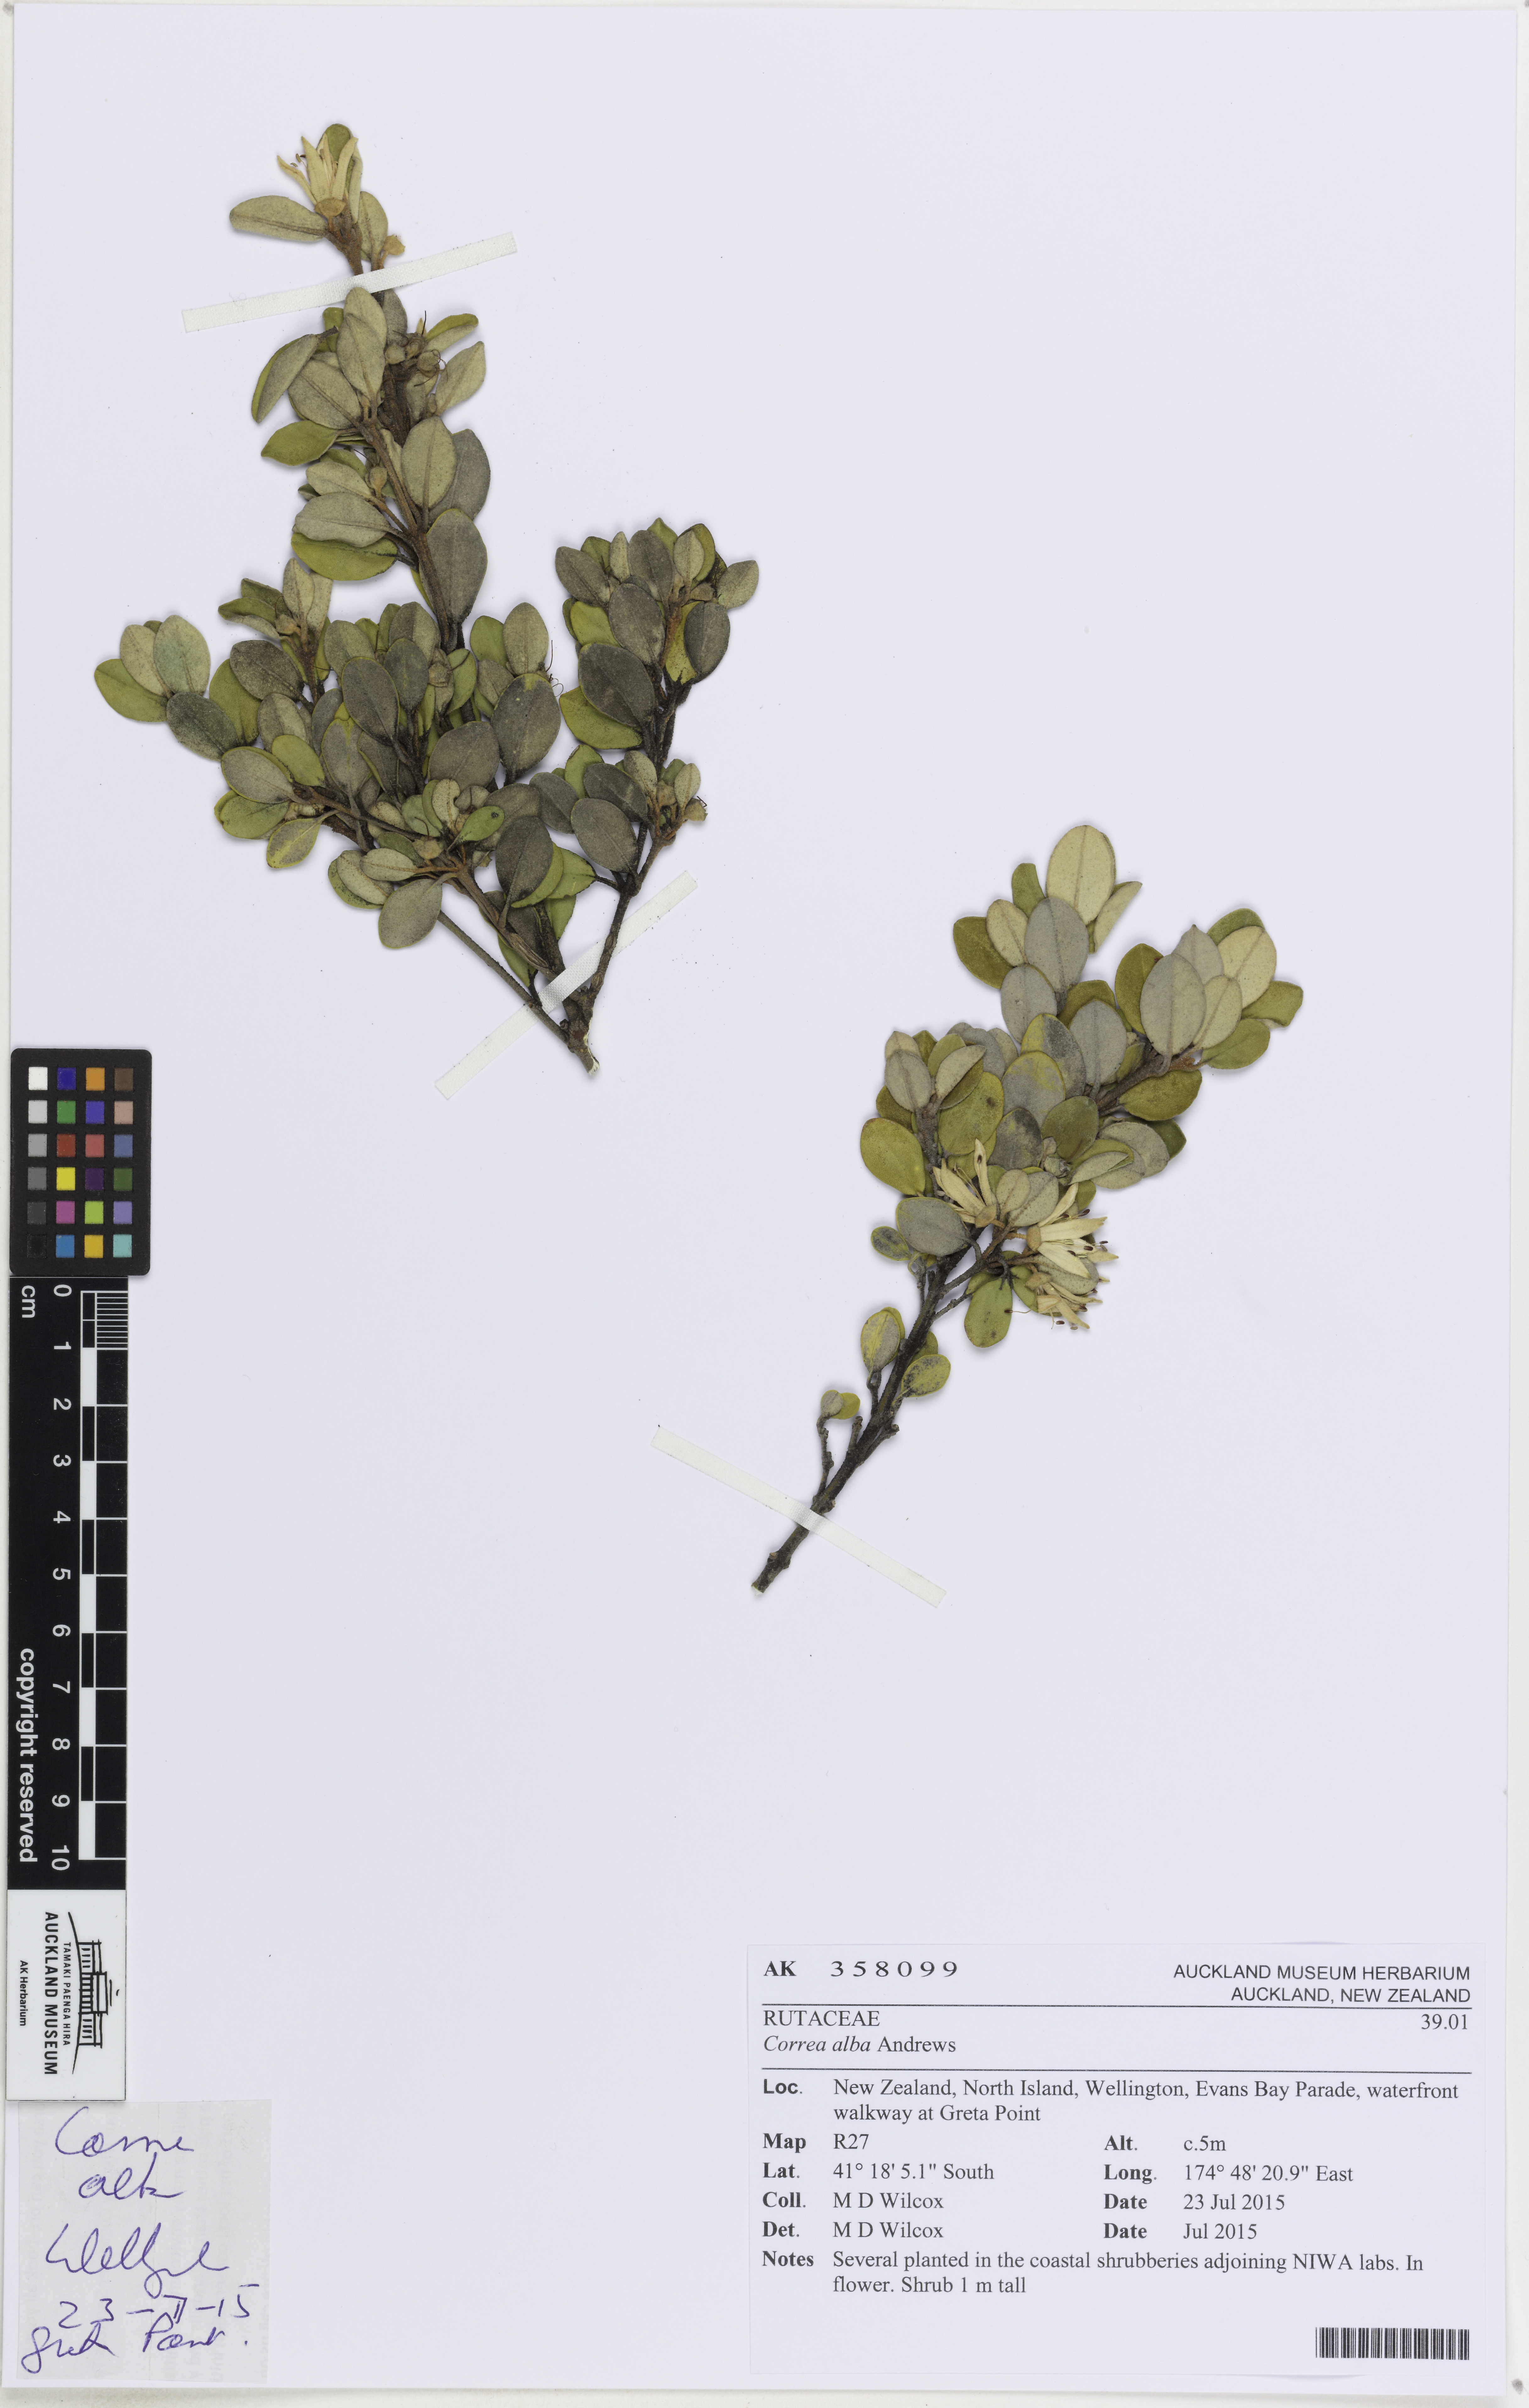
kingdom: Plantae
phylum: Tracheophyta
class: Magnoliopsida
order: Sapindales
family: Rutaceae
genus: Correa
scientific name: Correa alba
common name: White correa
